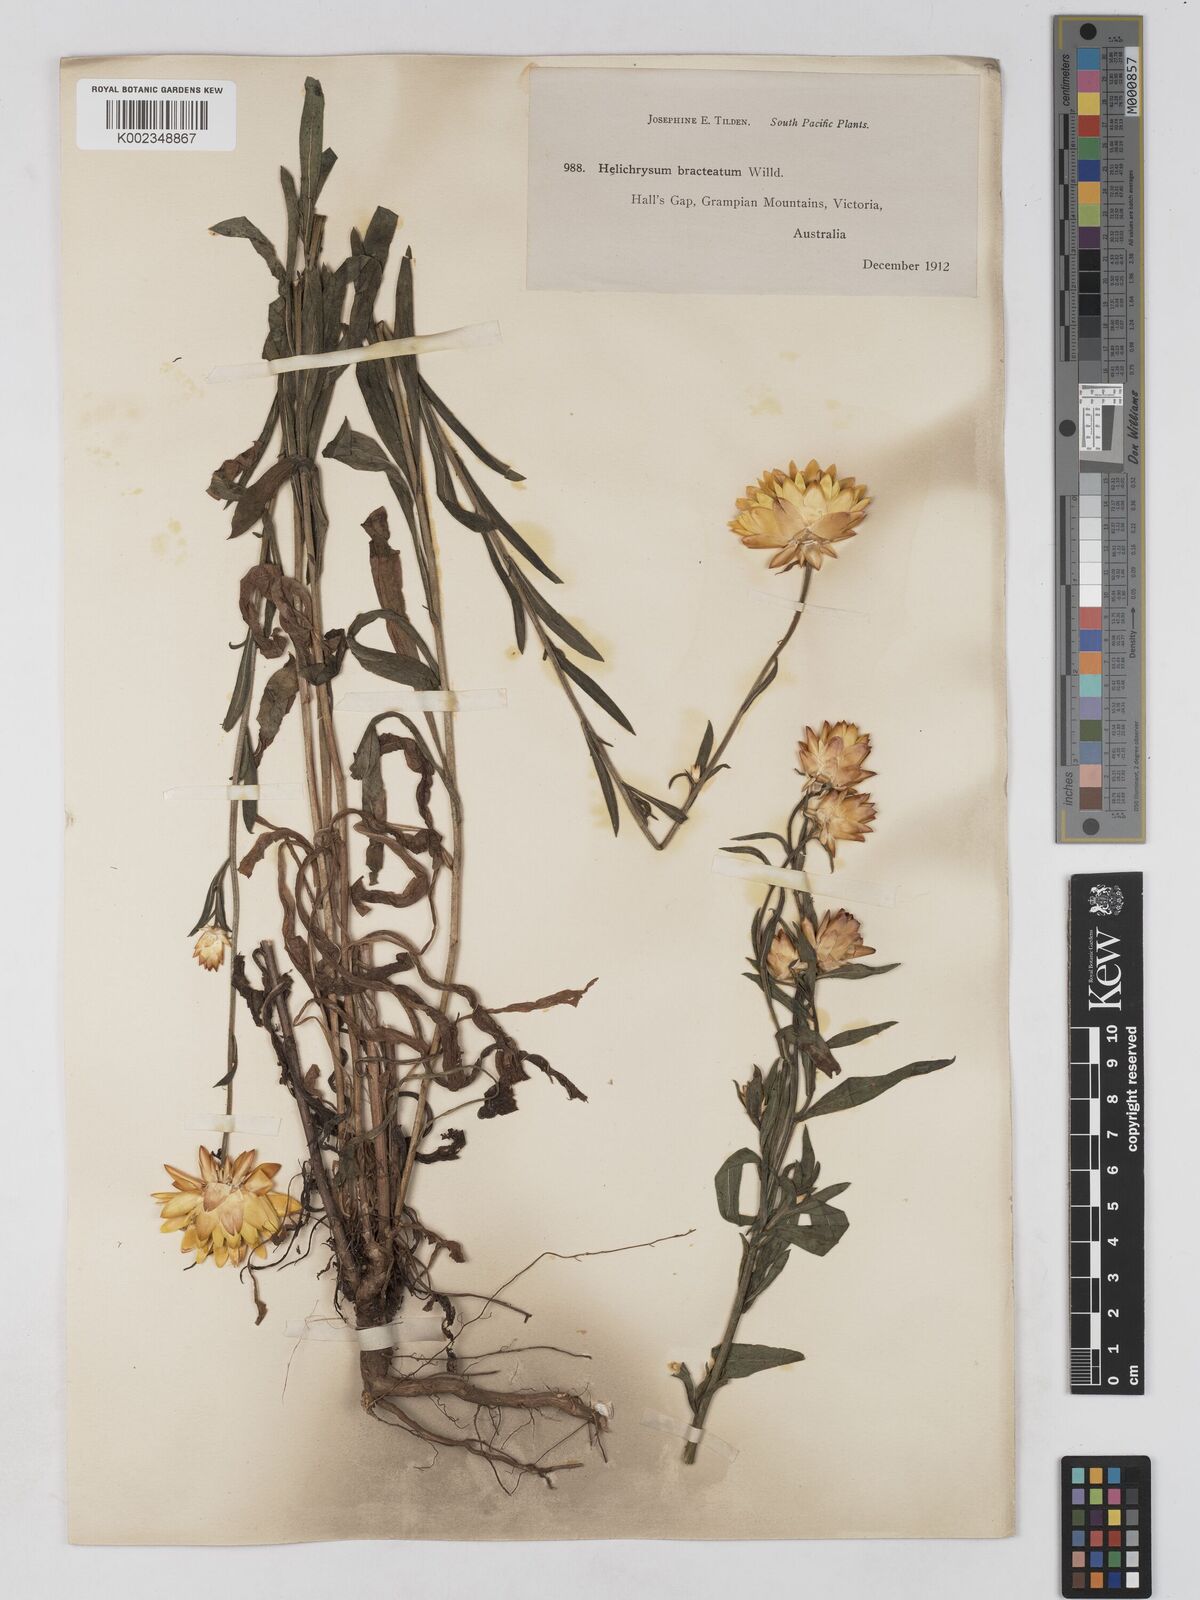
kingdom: Plantae
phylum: Tracheophyta
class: Magnoliopsida
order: Asterales
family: Asteraceae
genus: Xerochrysum
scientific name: Xerochrysum bracteatum
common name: Bracted strawflower
